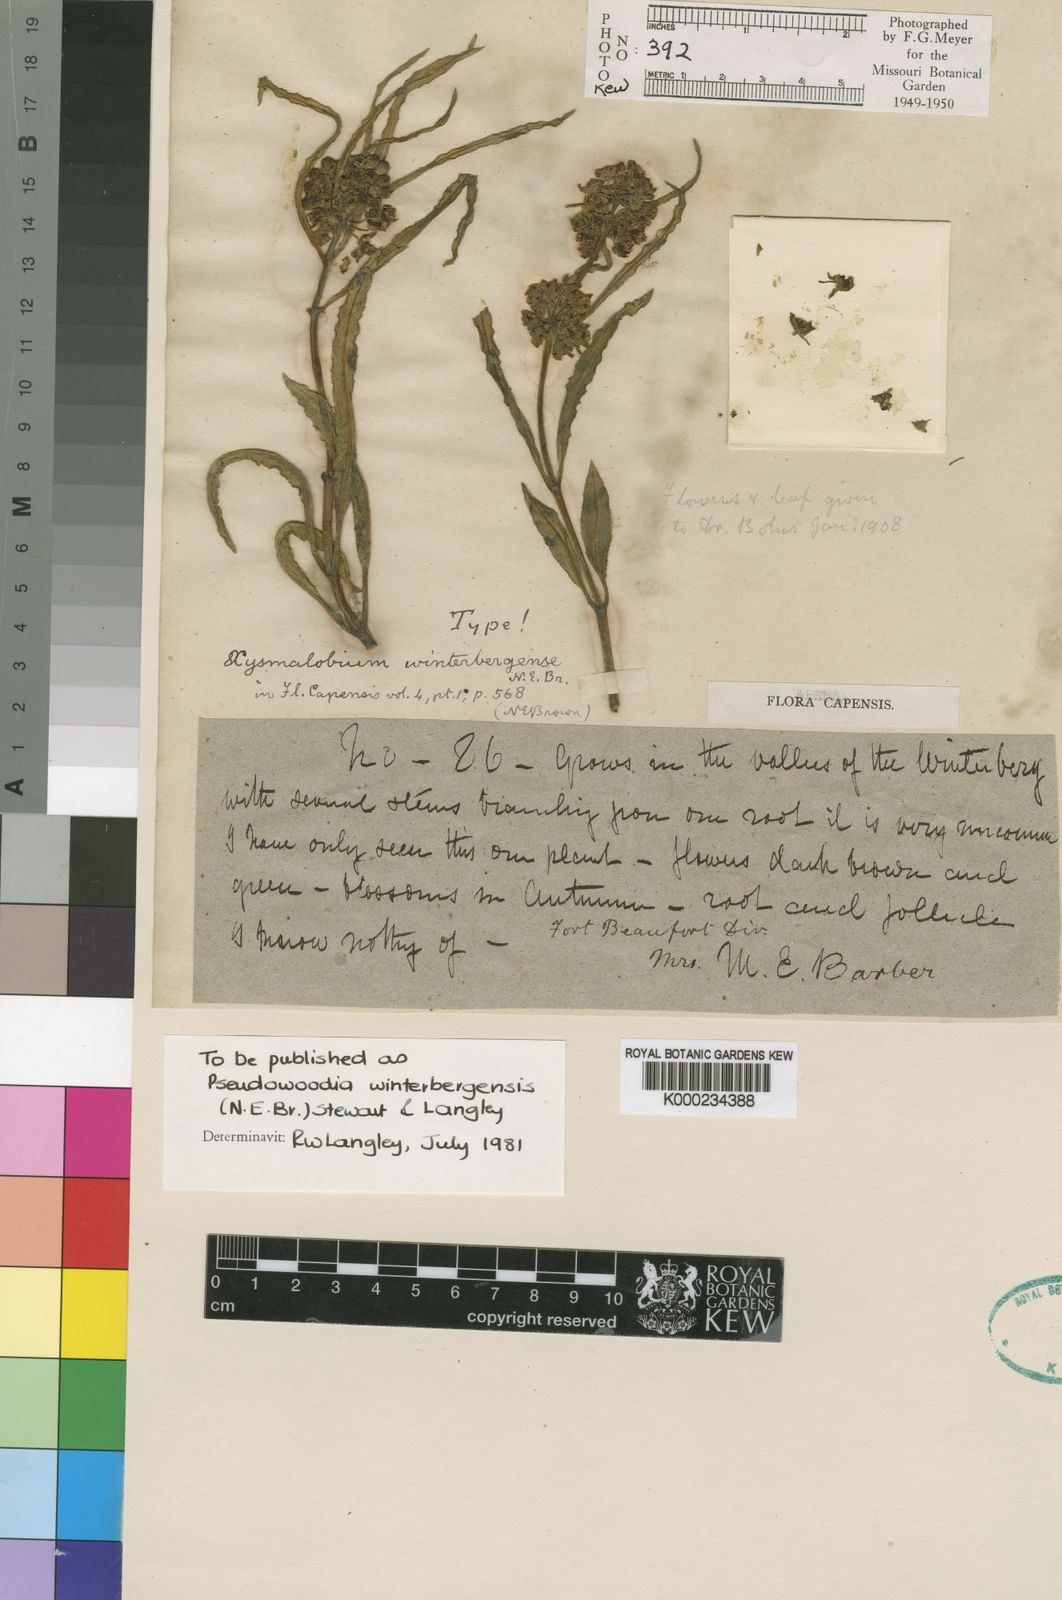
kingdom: Plantae
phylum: Tracheophyta
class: Magnoliopsida
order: Gentianales
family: Asclepiadaceae
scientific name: Asclepiadaceae
